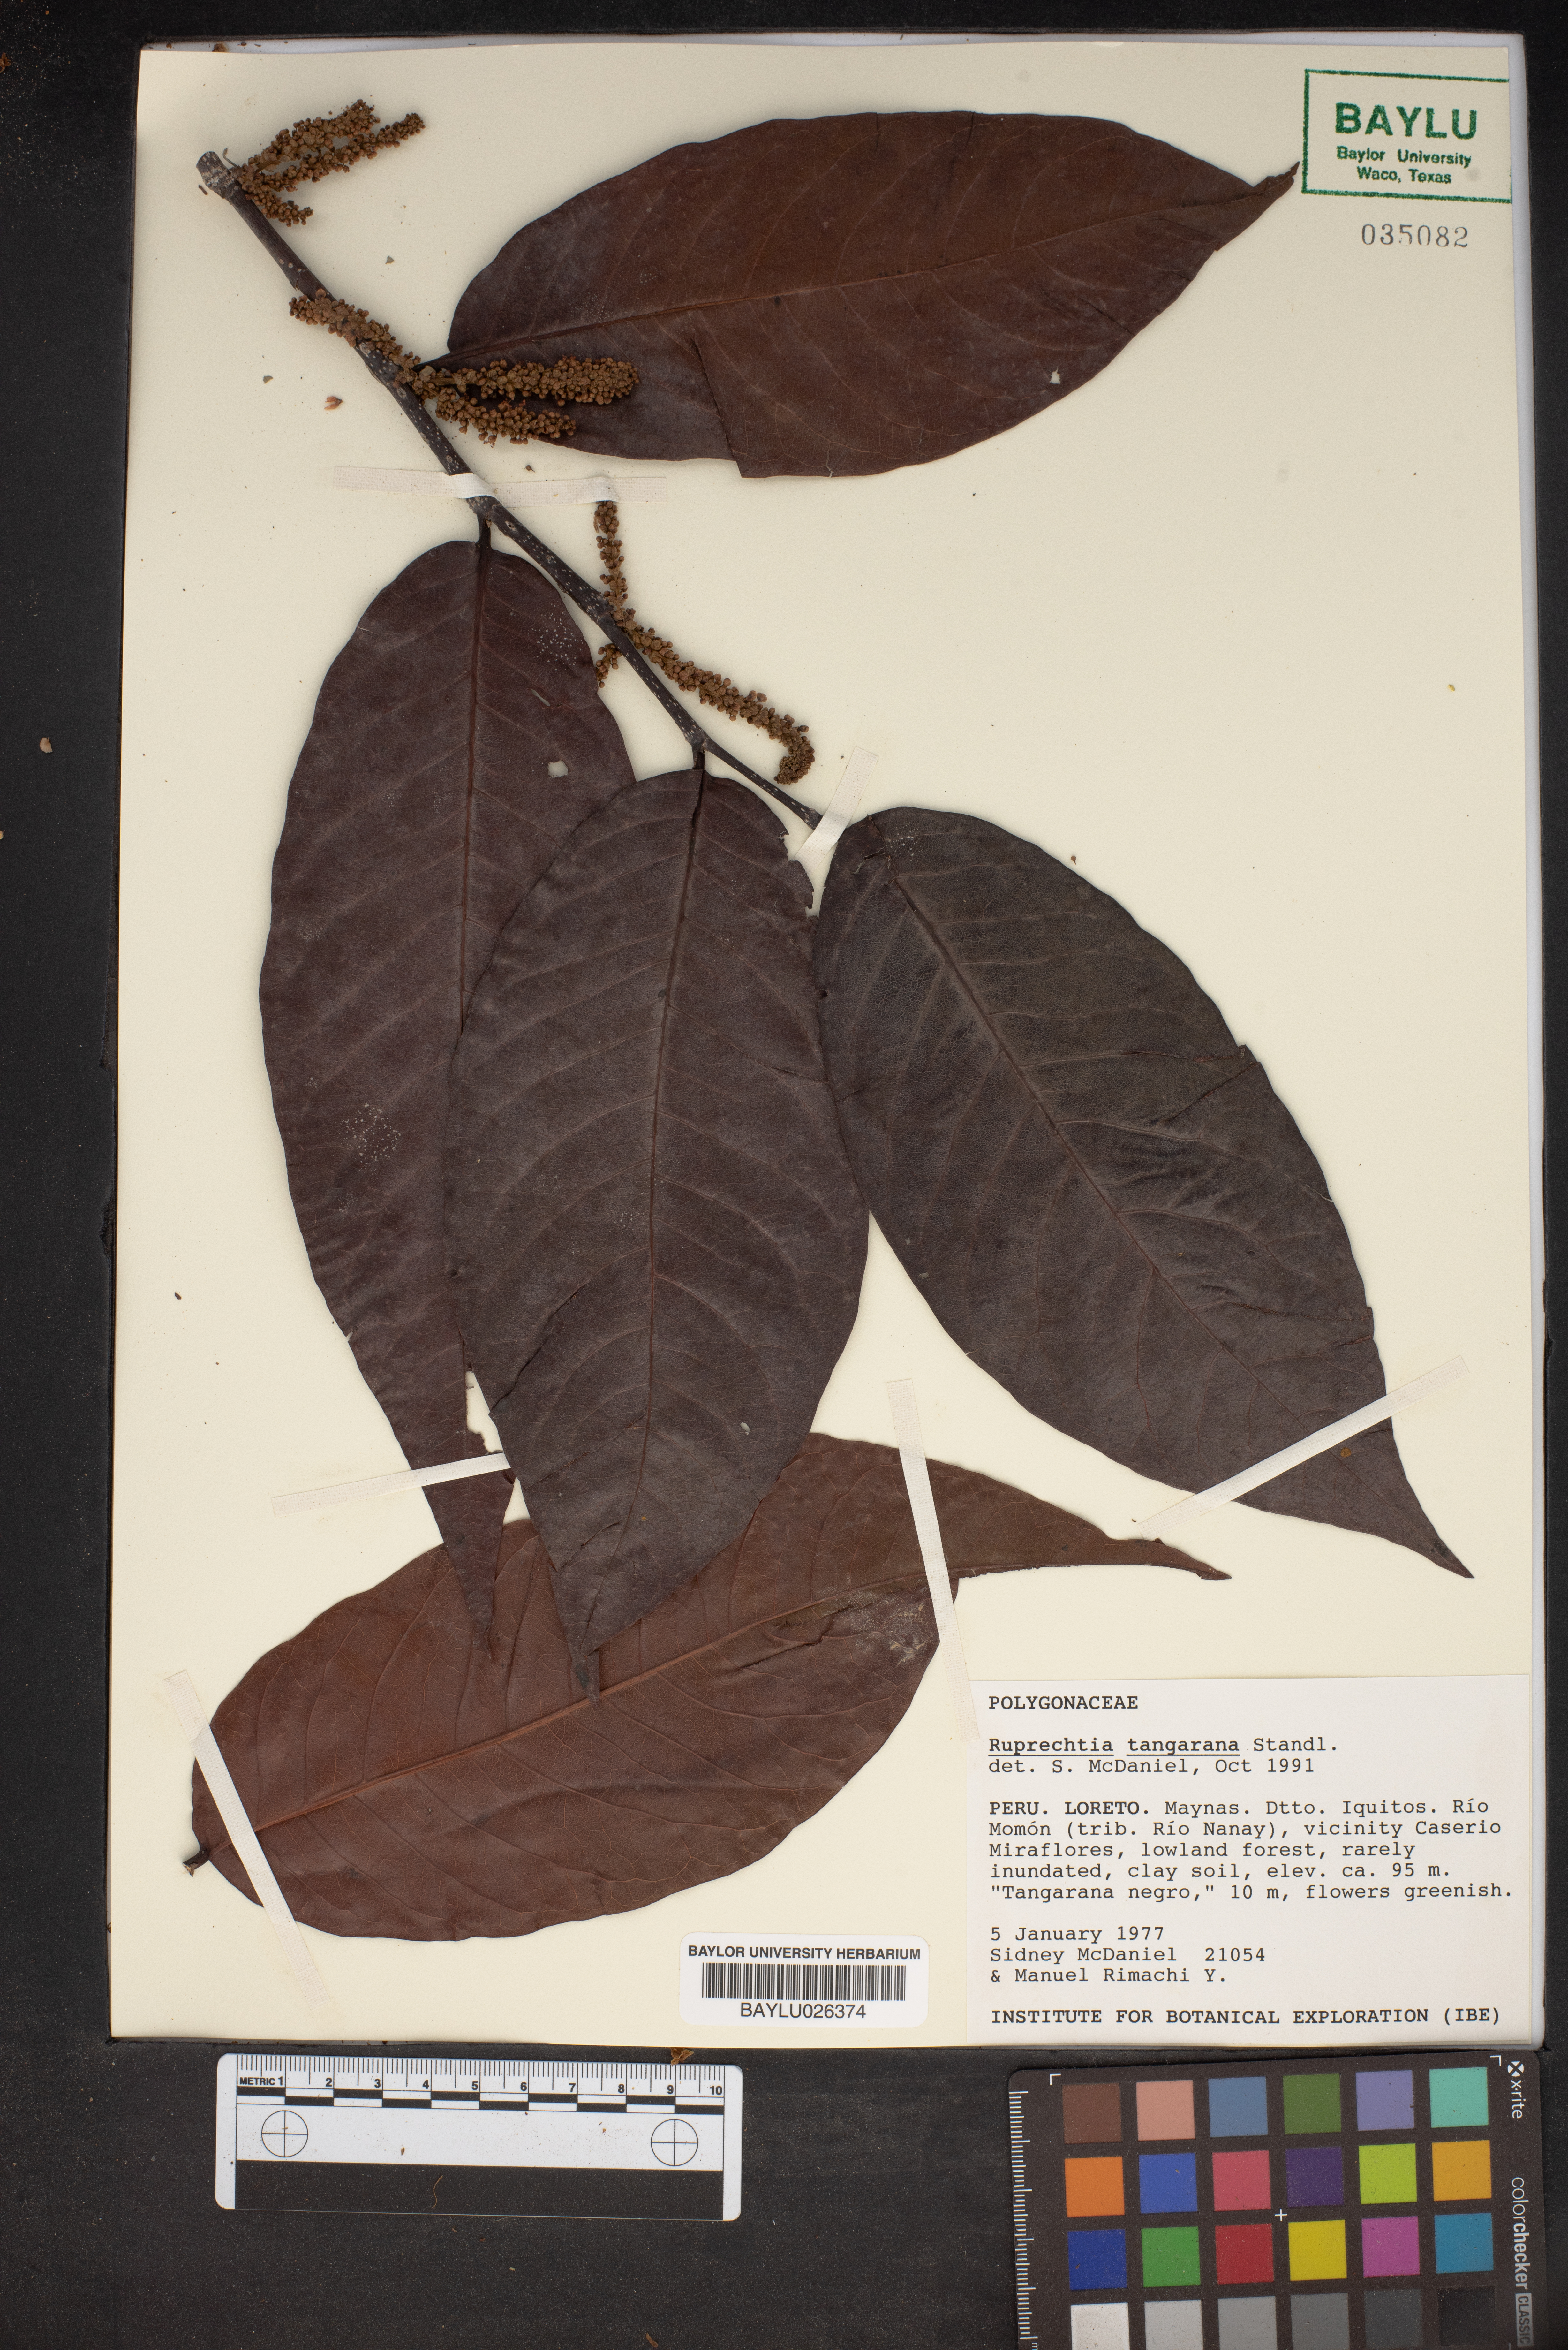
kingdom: Plantae
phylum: Tracheophyta
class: Magnoliopsida
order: Caryophyllales
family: Polygonaceae
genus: Ruprechtia
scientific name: Ruprechtia tangarana
